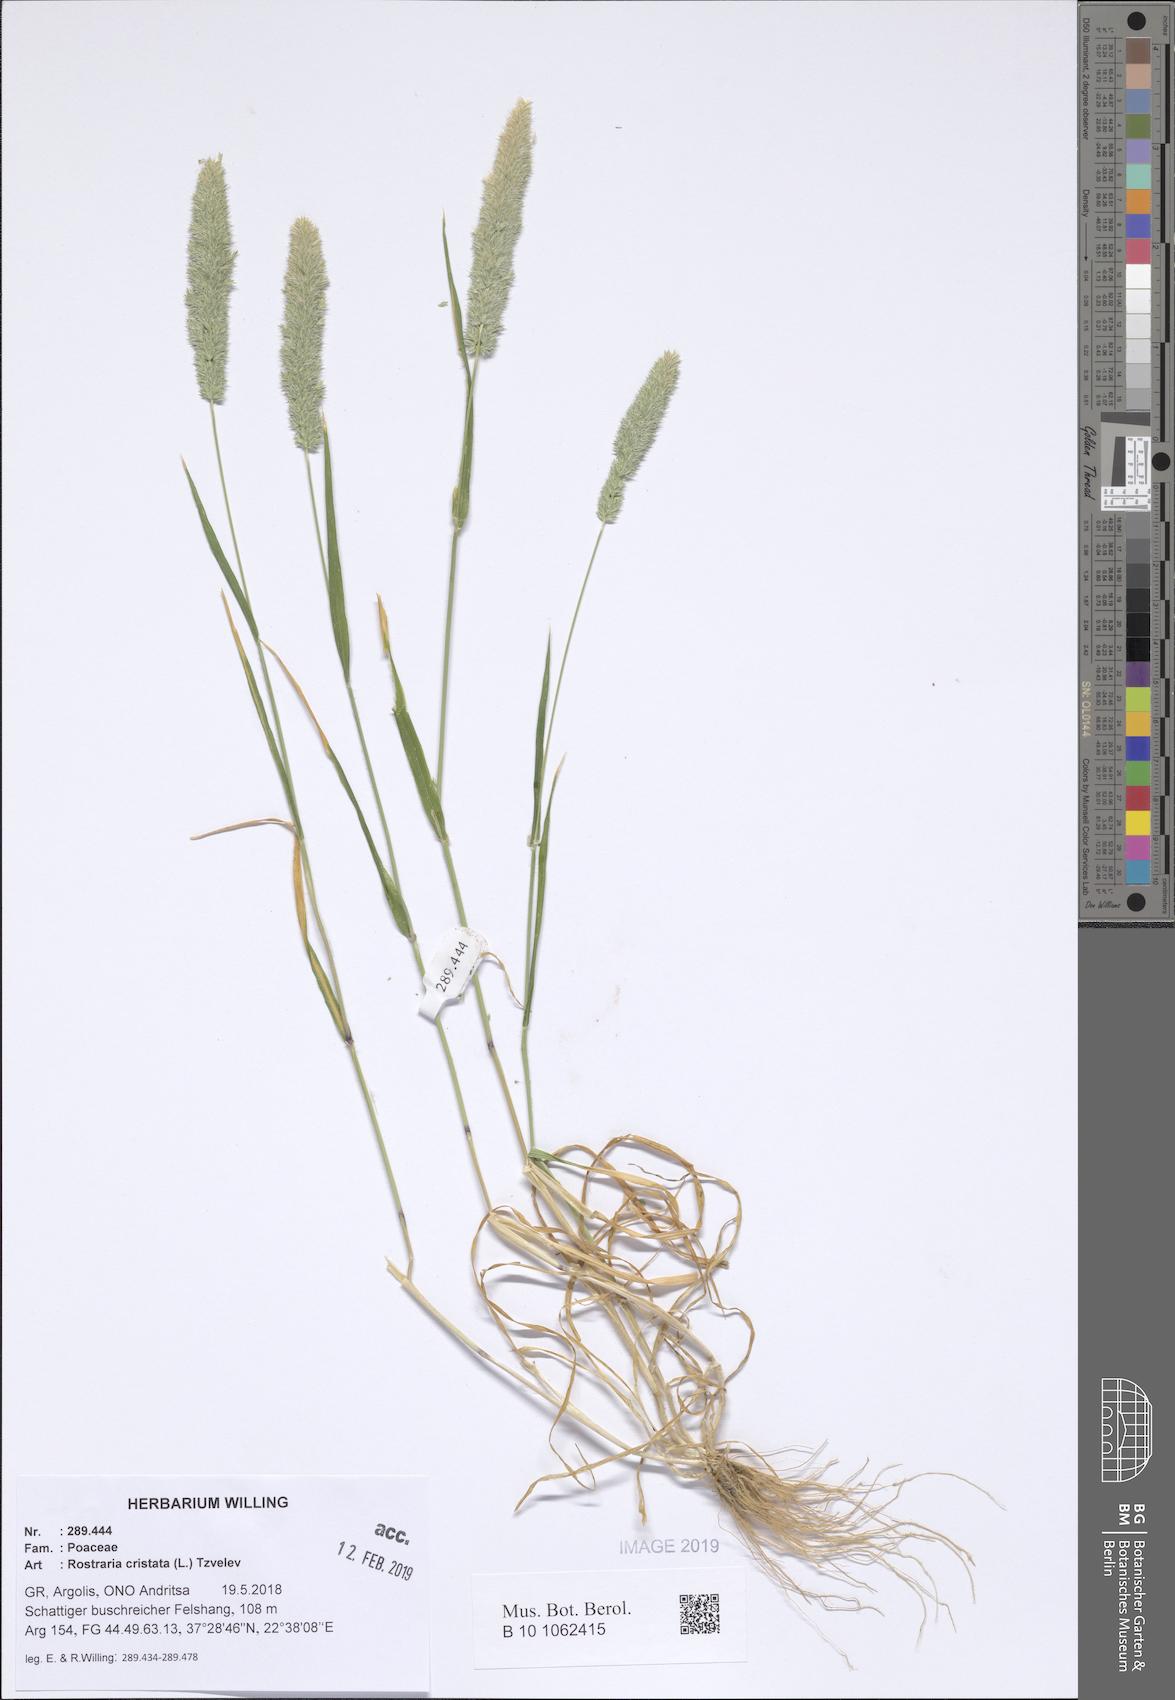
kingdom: Plantae
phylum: Tracheophyta
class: Liliopsida
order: Poales
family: Poaceae
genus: Rostraria
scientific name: Rostraria cristata
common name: Mediterranean hair-grass
